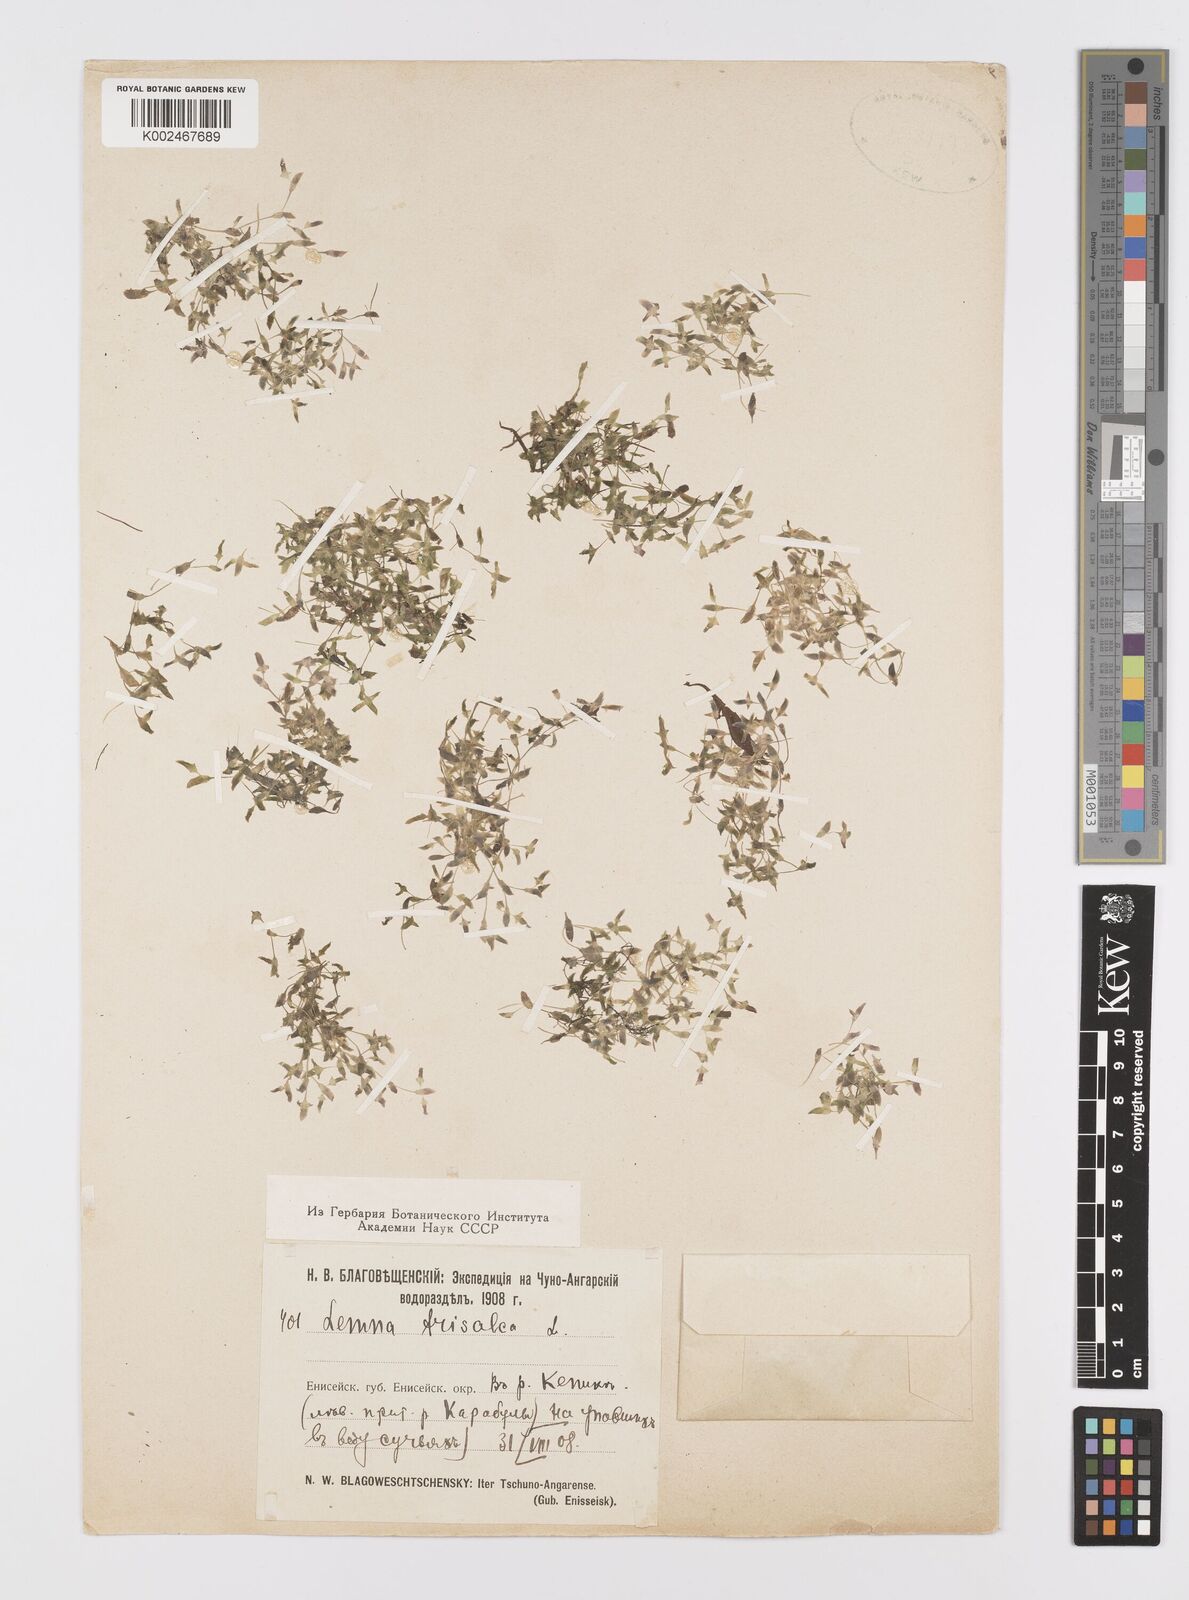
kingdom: Plantae
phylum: Tracheophyta
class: Liliopsida
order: Alismatales
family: Araceae
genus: Lemna
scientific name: Lemna trisulca
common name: Ivy-leaved duckweed
